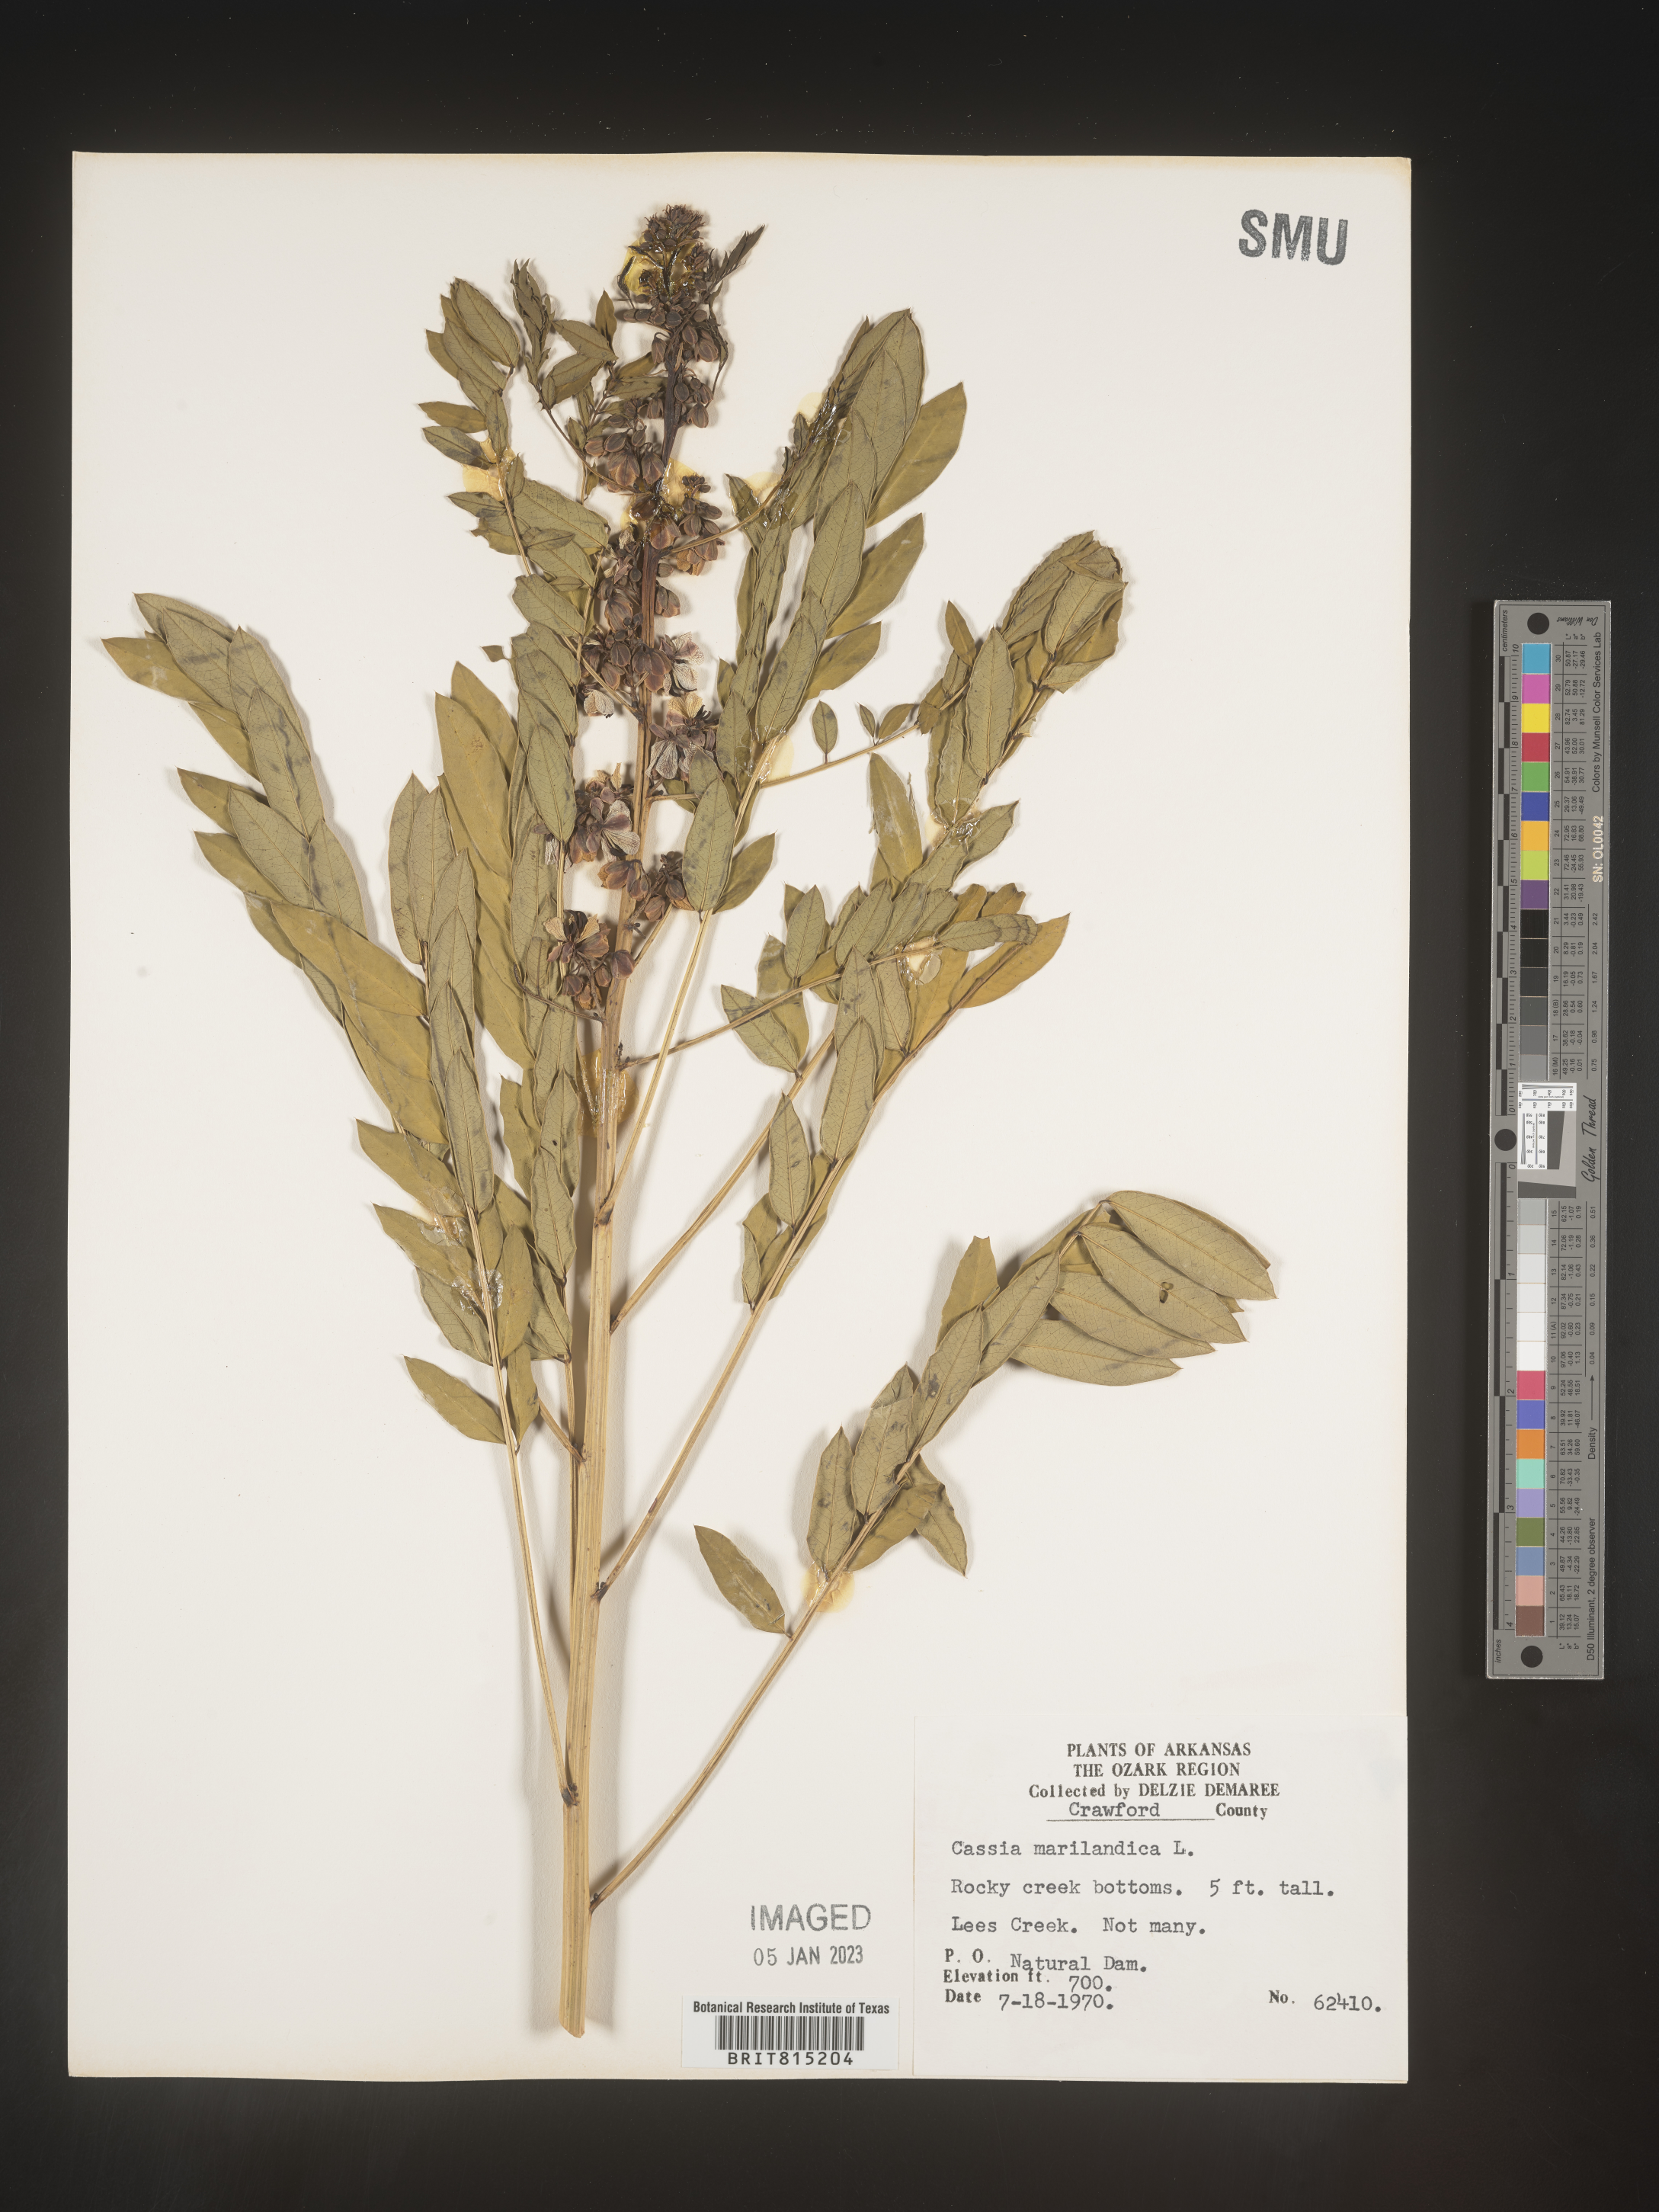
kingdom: Plantae
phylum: Tracheophyta
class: Magnoliopsida
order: Fabales
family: Fabaceae
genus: Senna
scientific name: Senna marilandica
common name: American senna
